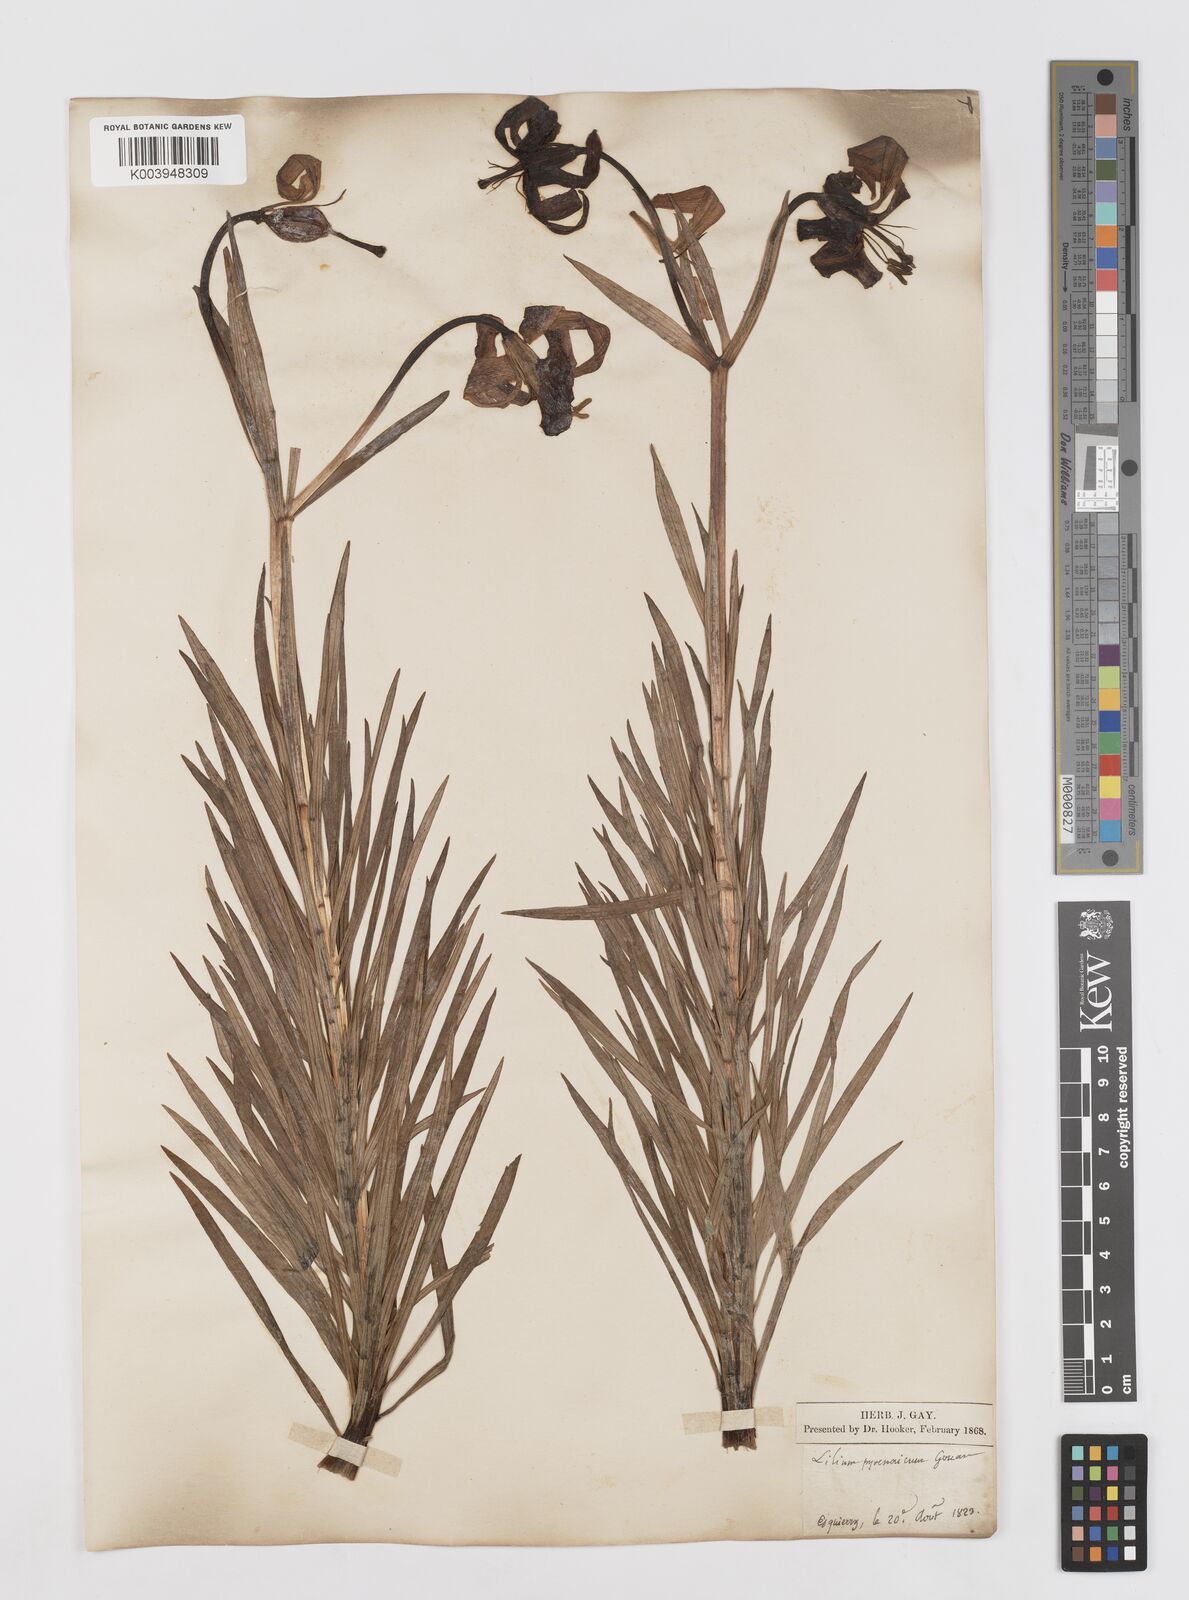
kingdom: Plantae
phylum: Tracheophyta
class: Liliopsida
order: Liliales
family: Liliaceae
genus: Lilium
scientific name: Lilium pyrenaicum
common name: Pyrenean lily
